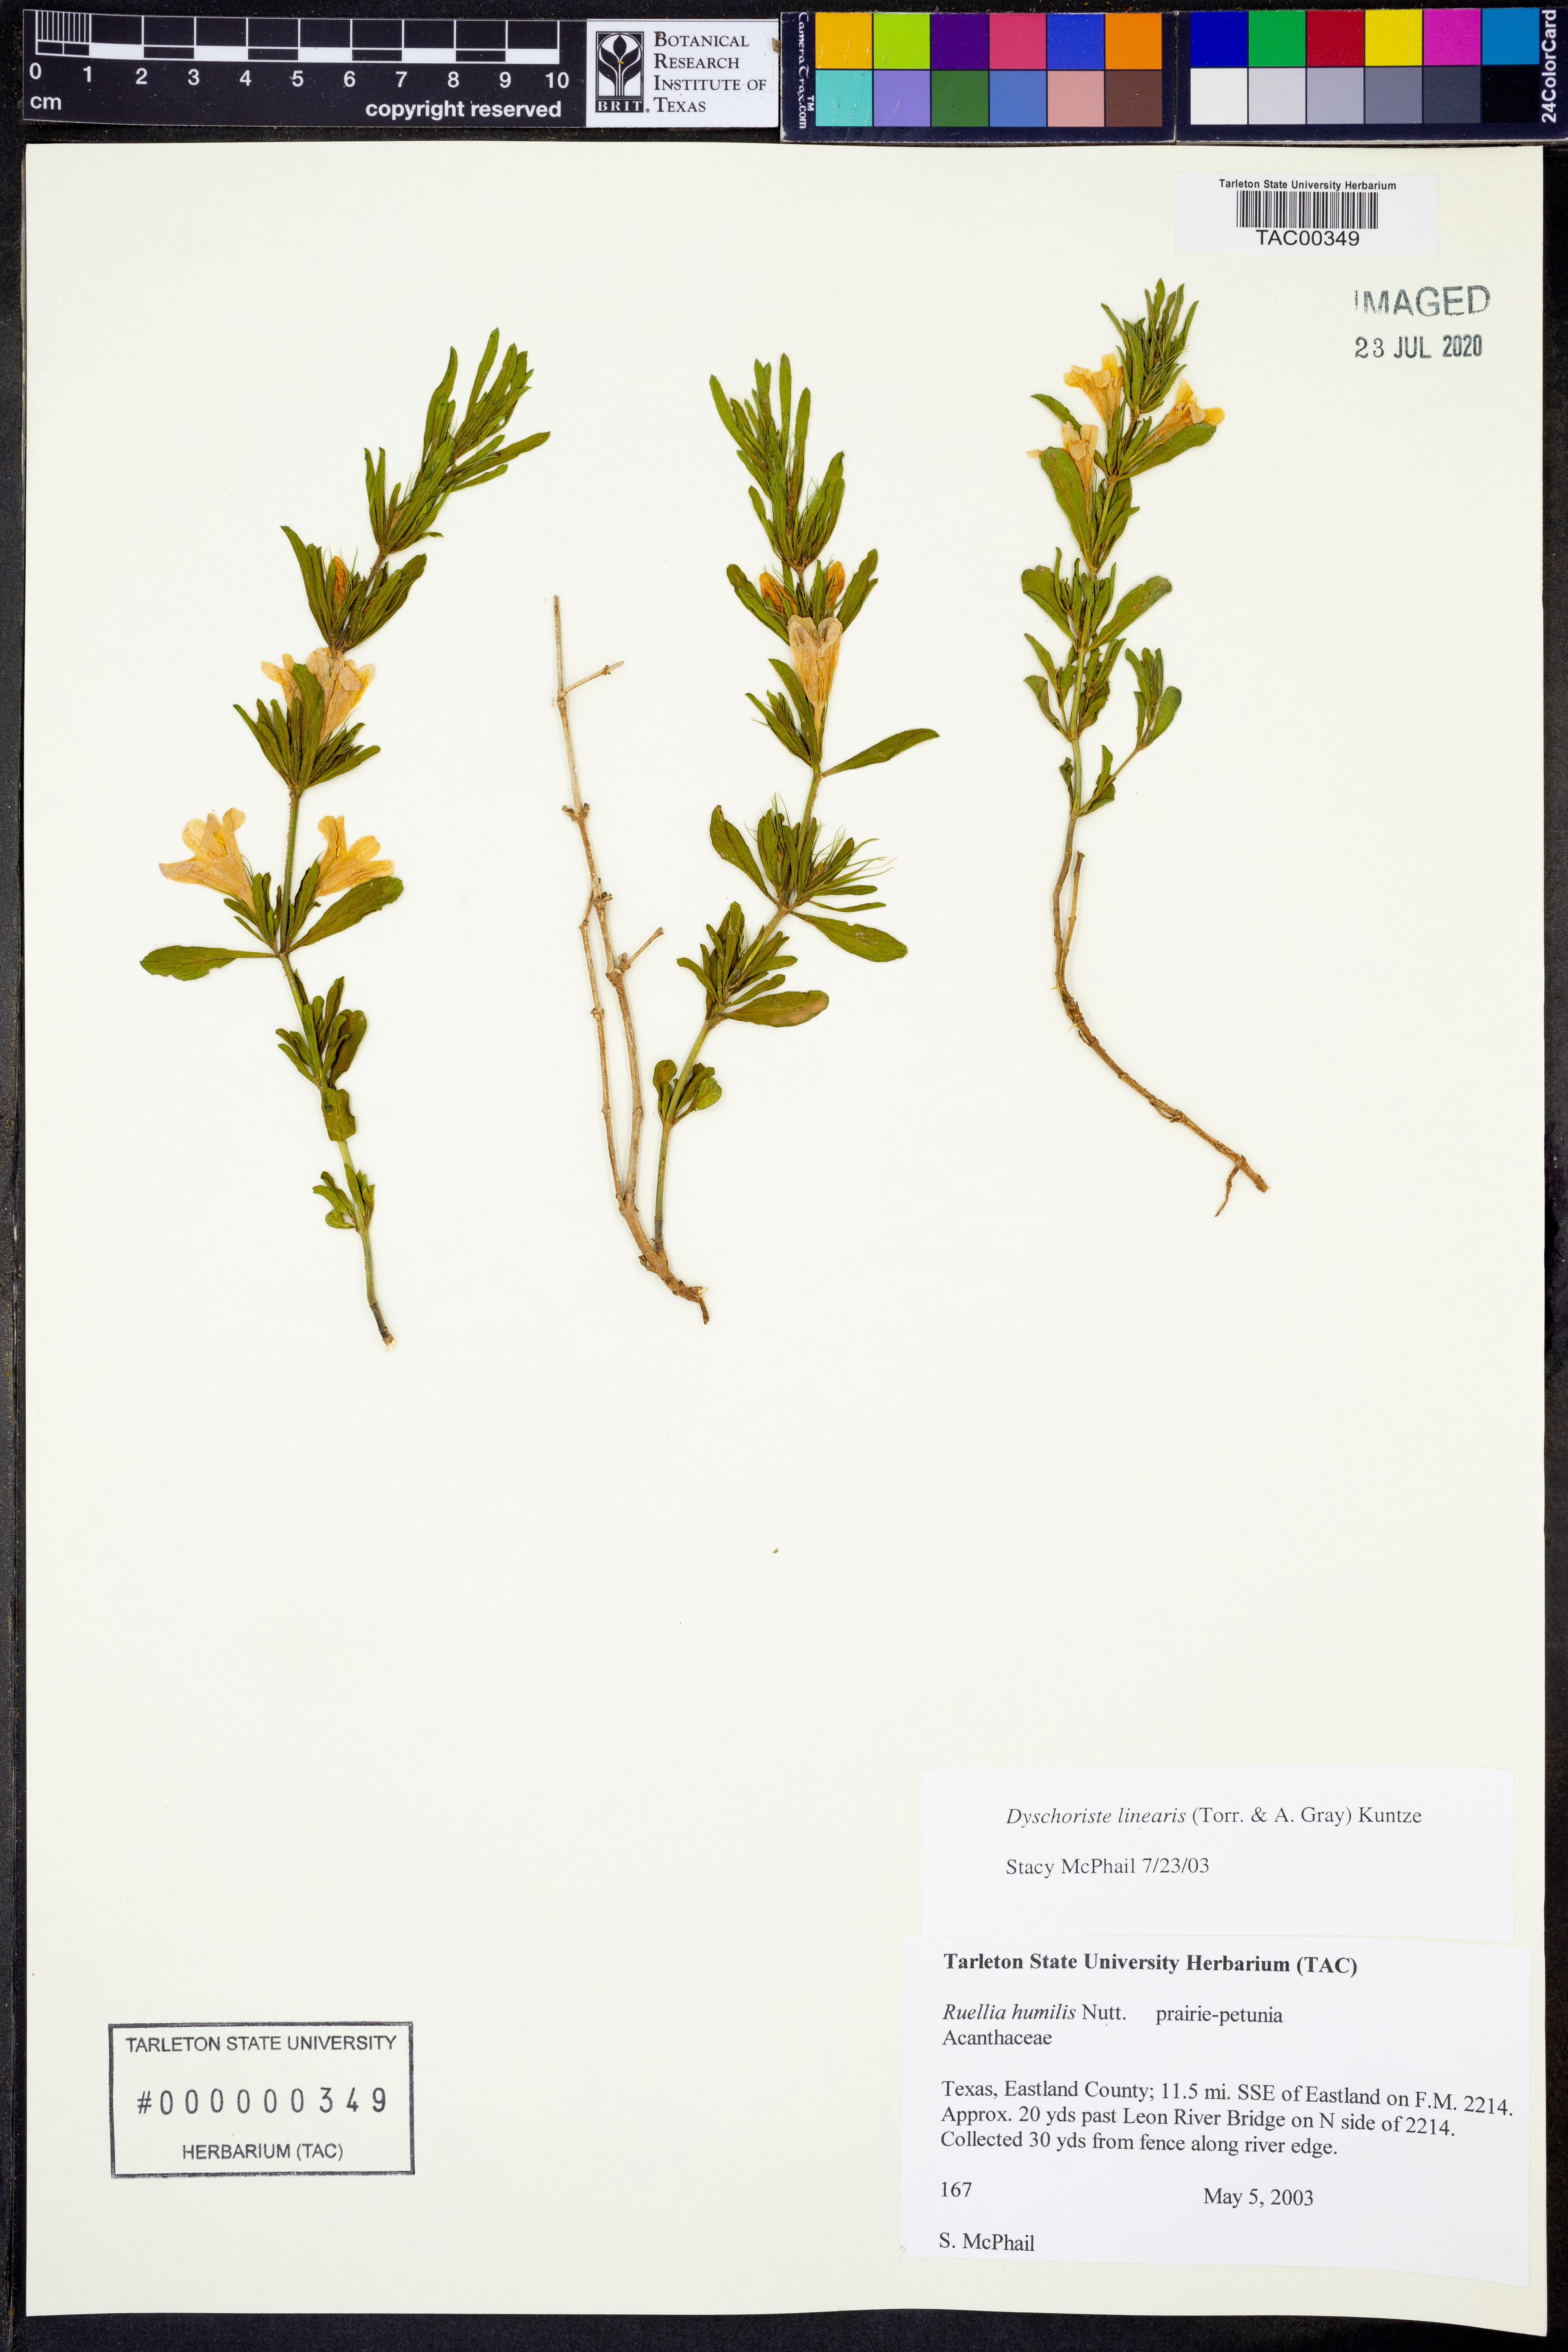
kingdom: Plantae
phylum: Tracheophyta
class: Magnoliopsida
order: Lamiales
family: Acanthaceae
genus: Dyschoriste
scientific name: Dyschoriste linearis
